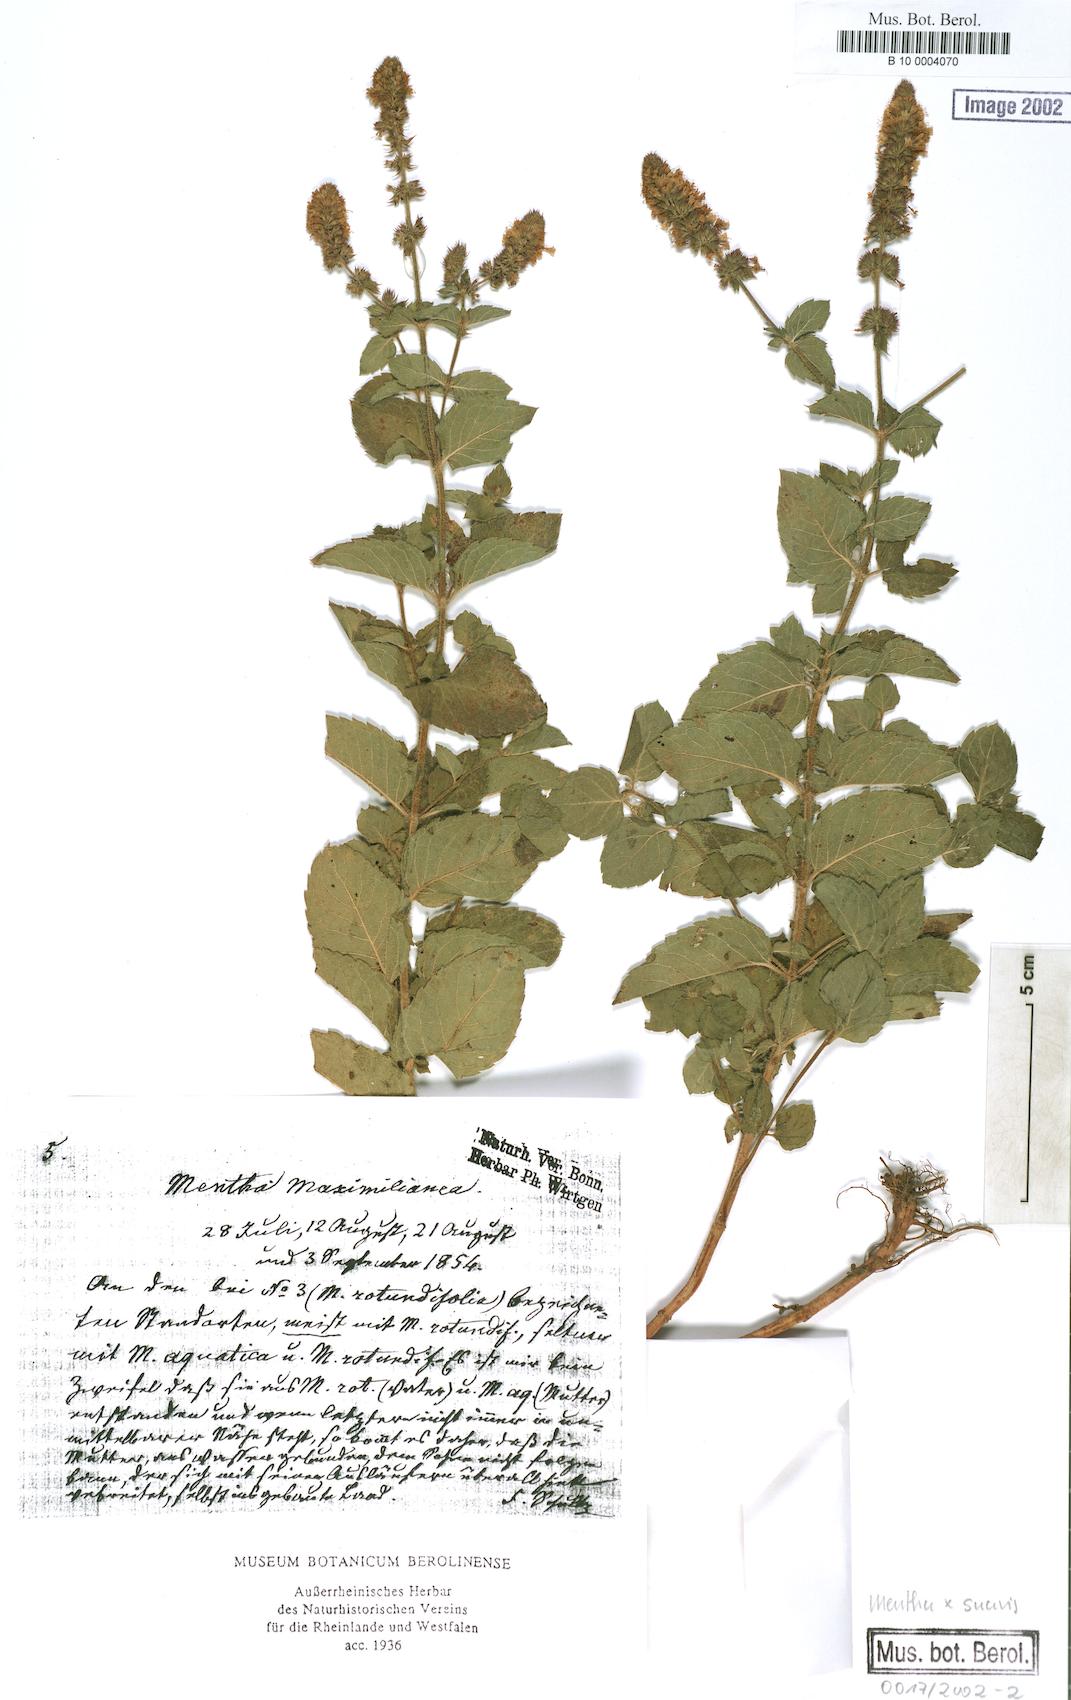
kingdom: Plantae
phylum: Tracheophyta
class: Magnoliopsida
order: Lamiales
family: Lamiaceae
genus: Mentha
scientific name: Mentha suavis
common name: Sweet mint
